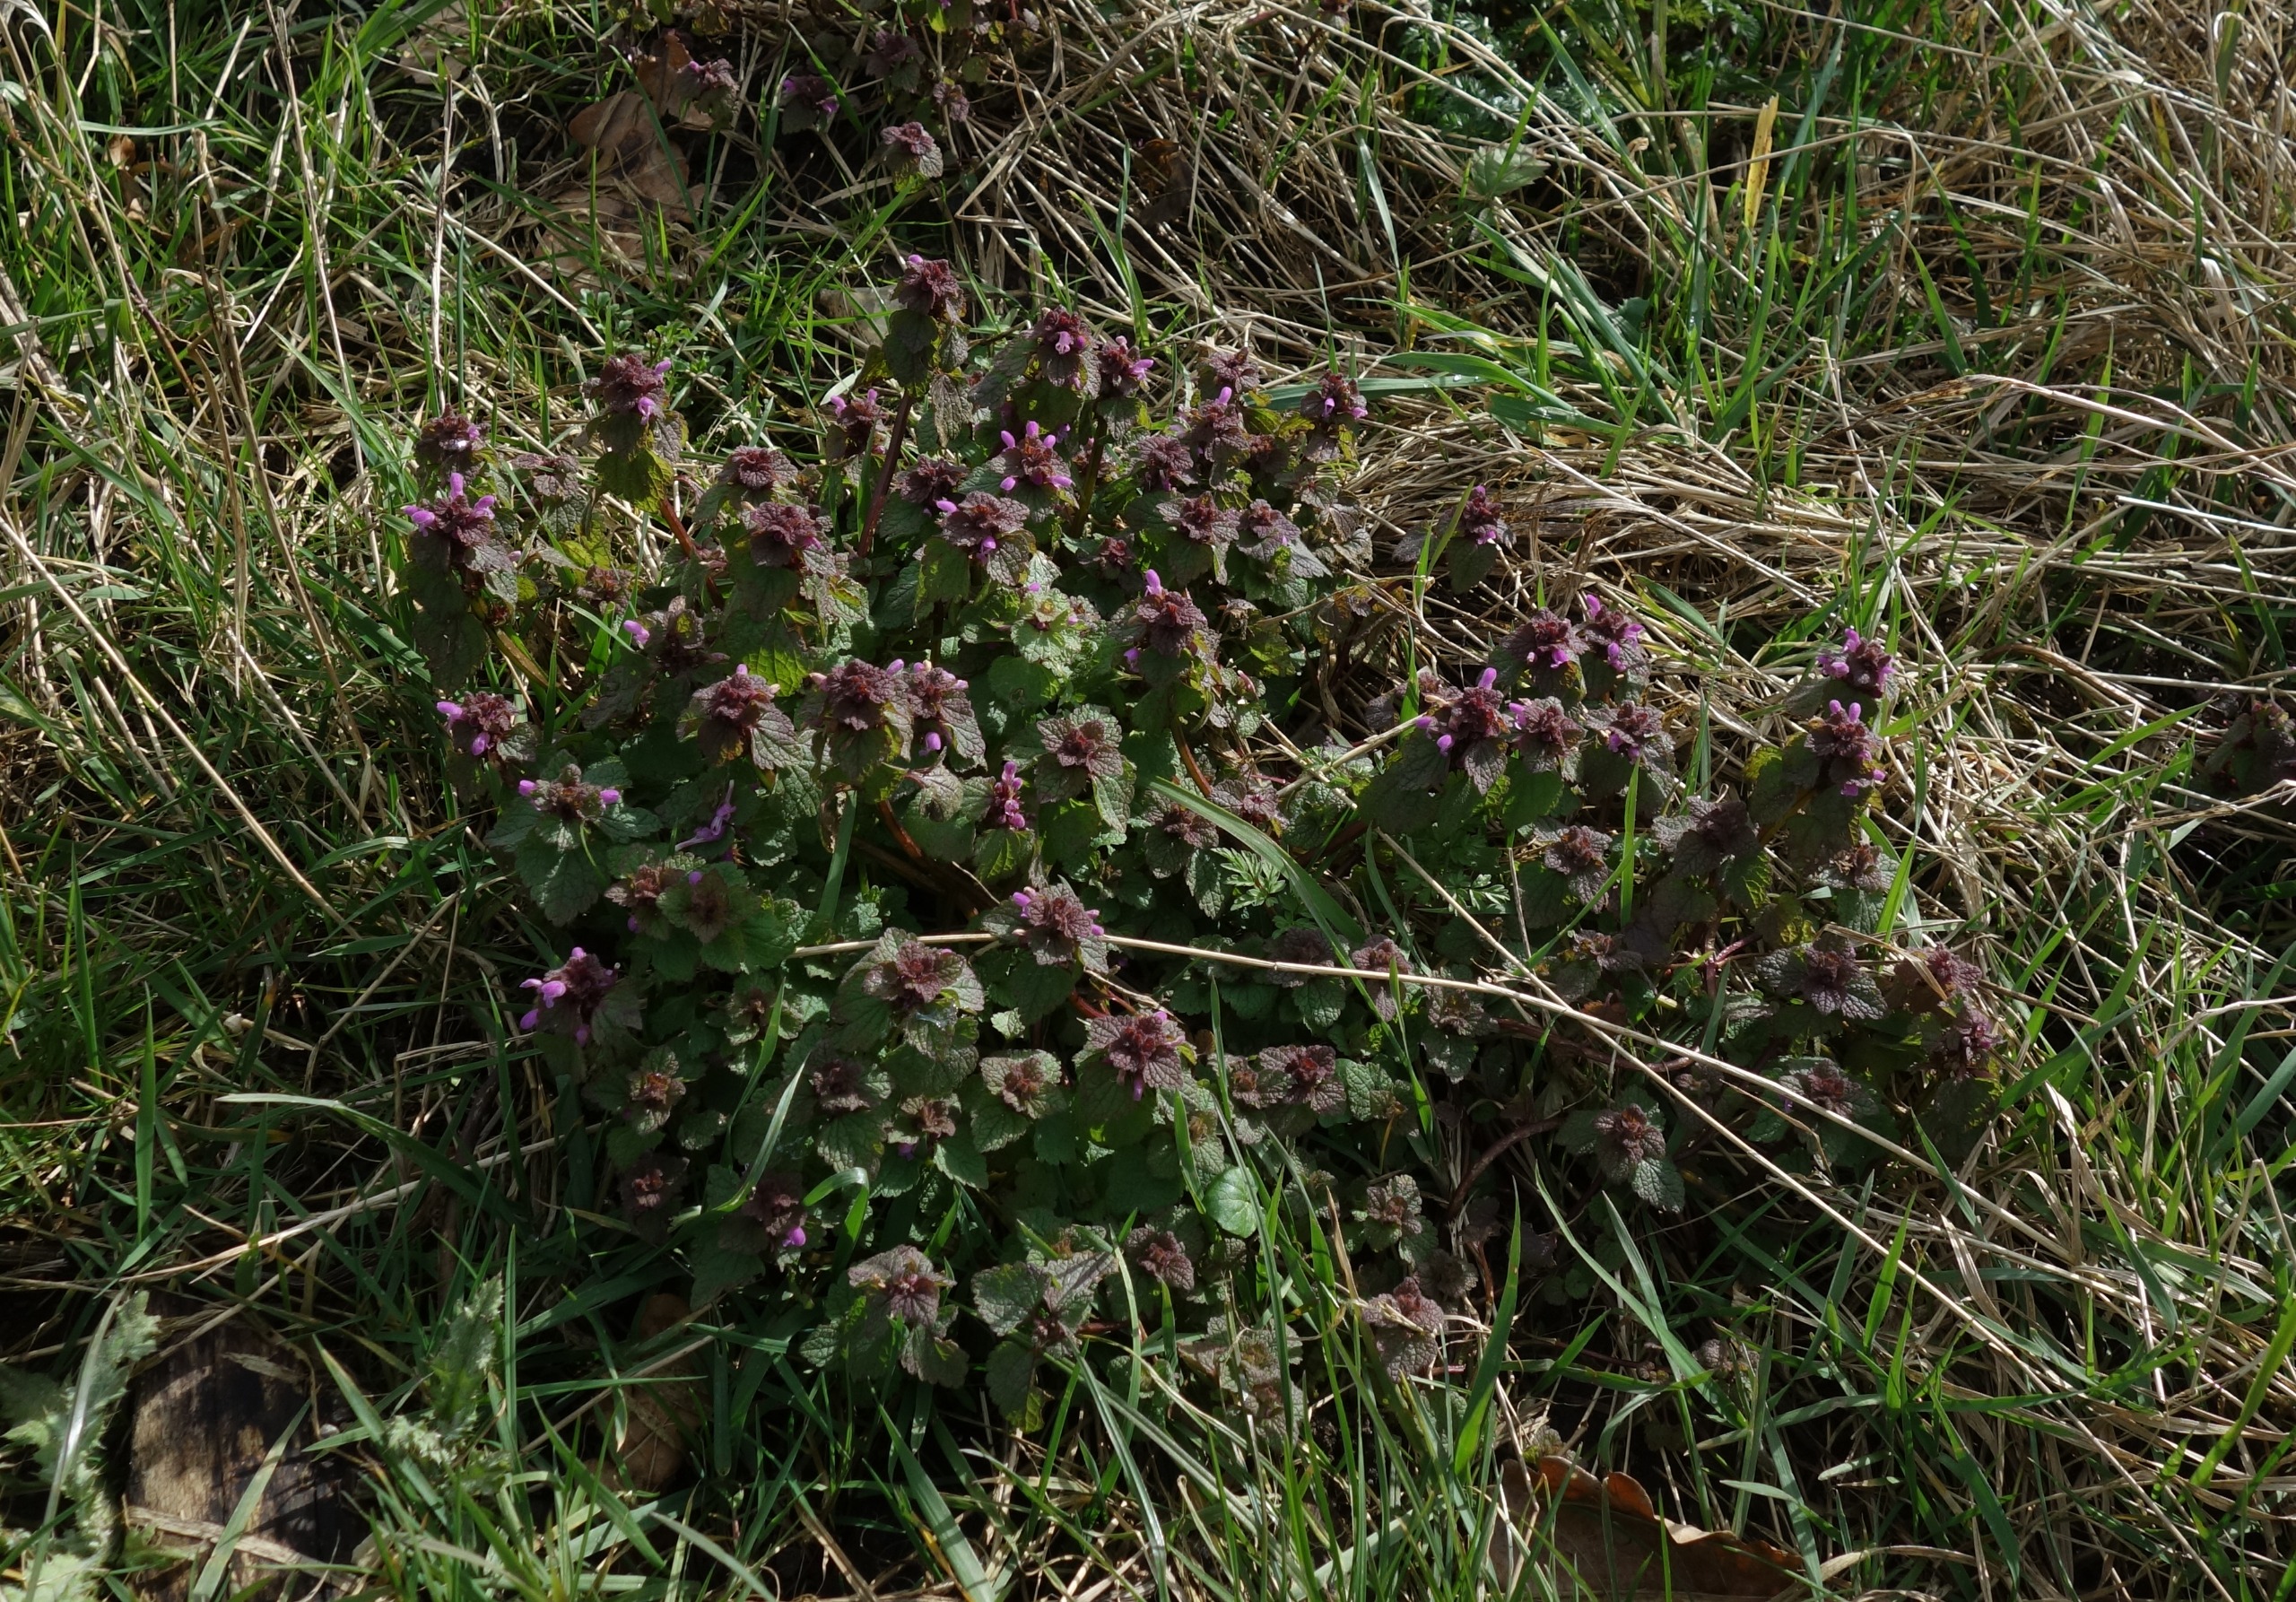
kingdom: Plantae
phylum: Tracheophyta
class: Magnoliopsida
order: Lamiales
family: Lamiaceae
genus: Lamium
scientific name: Lamium purpureum
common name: Rød tvetand
